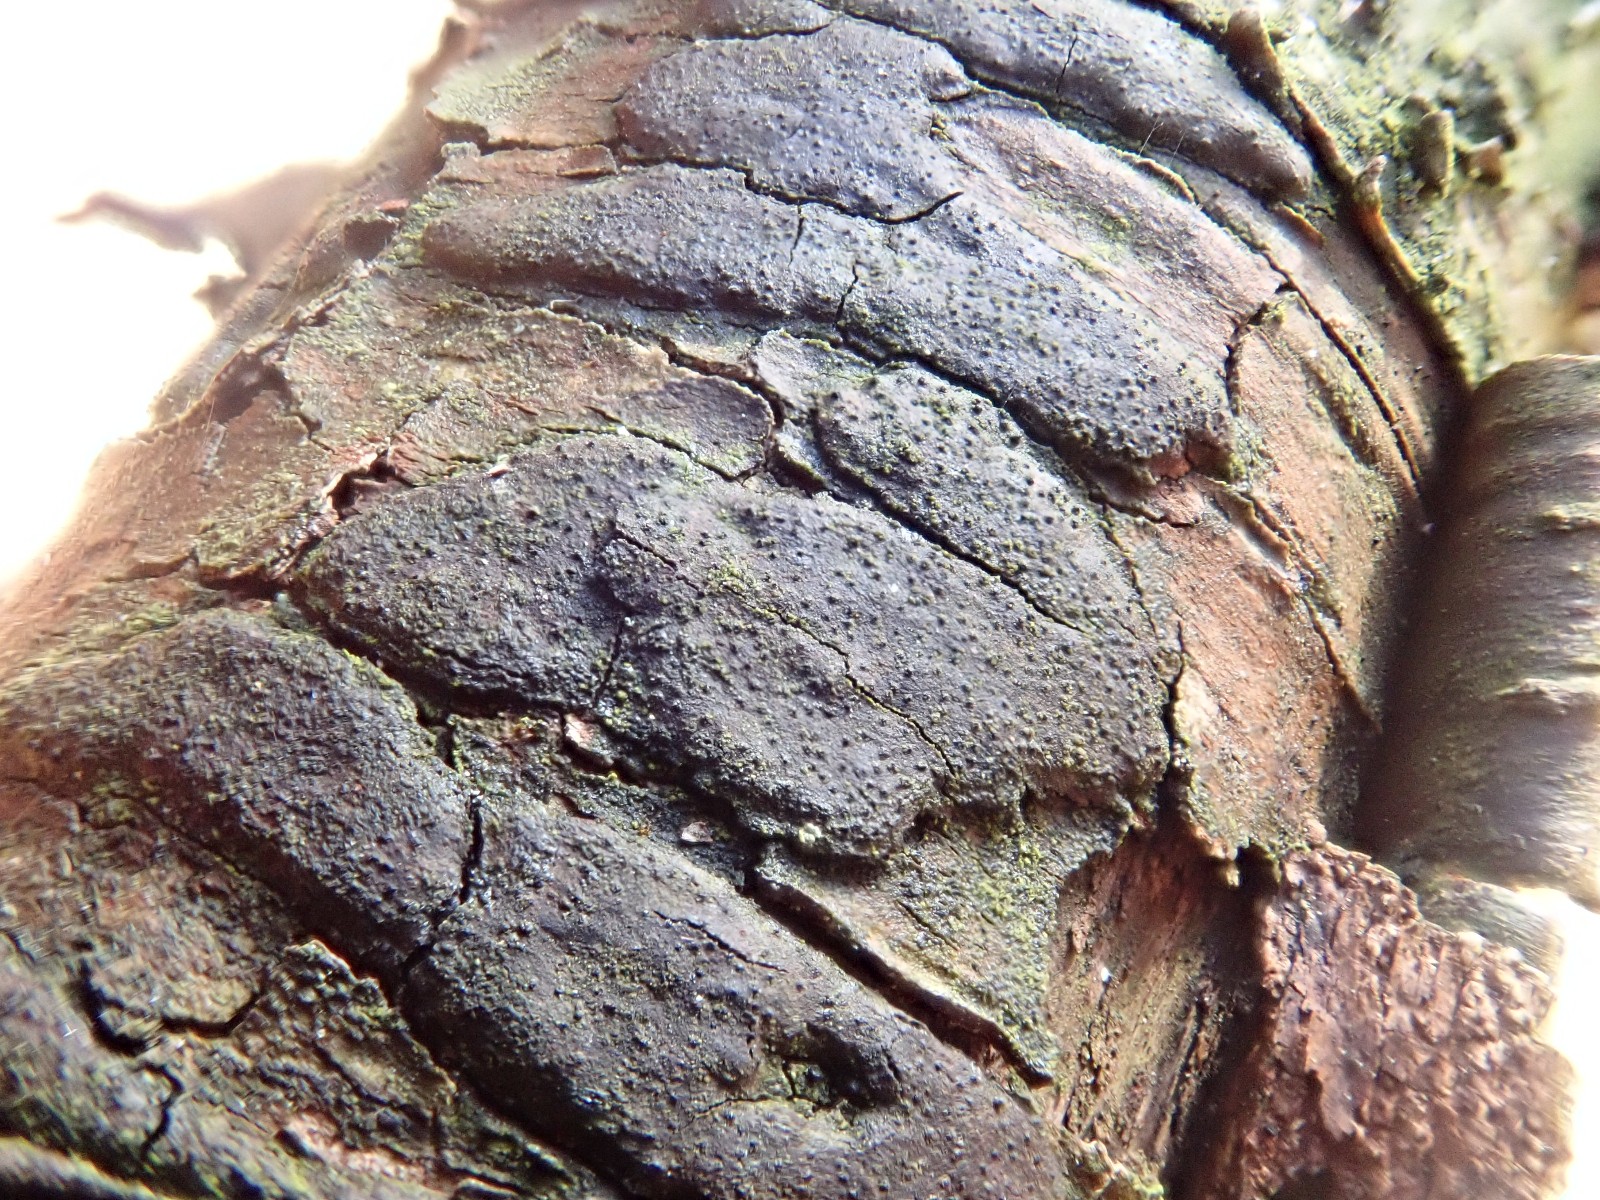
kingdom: Fungi
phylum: Ascomycota
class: Sordariomycetes
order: Xylariales
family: Diatrypaceae
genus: Diatrype
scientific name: Diatrype
